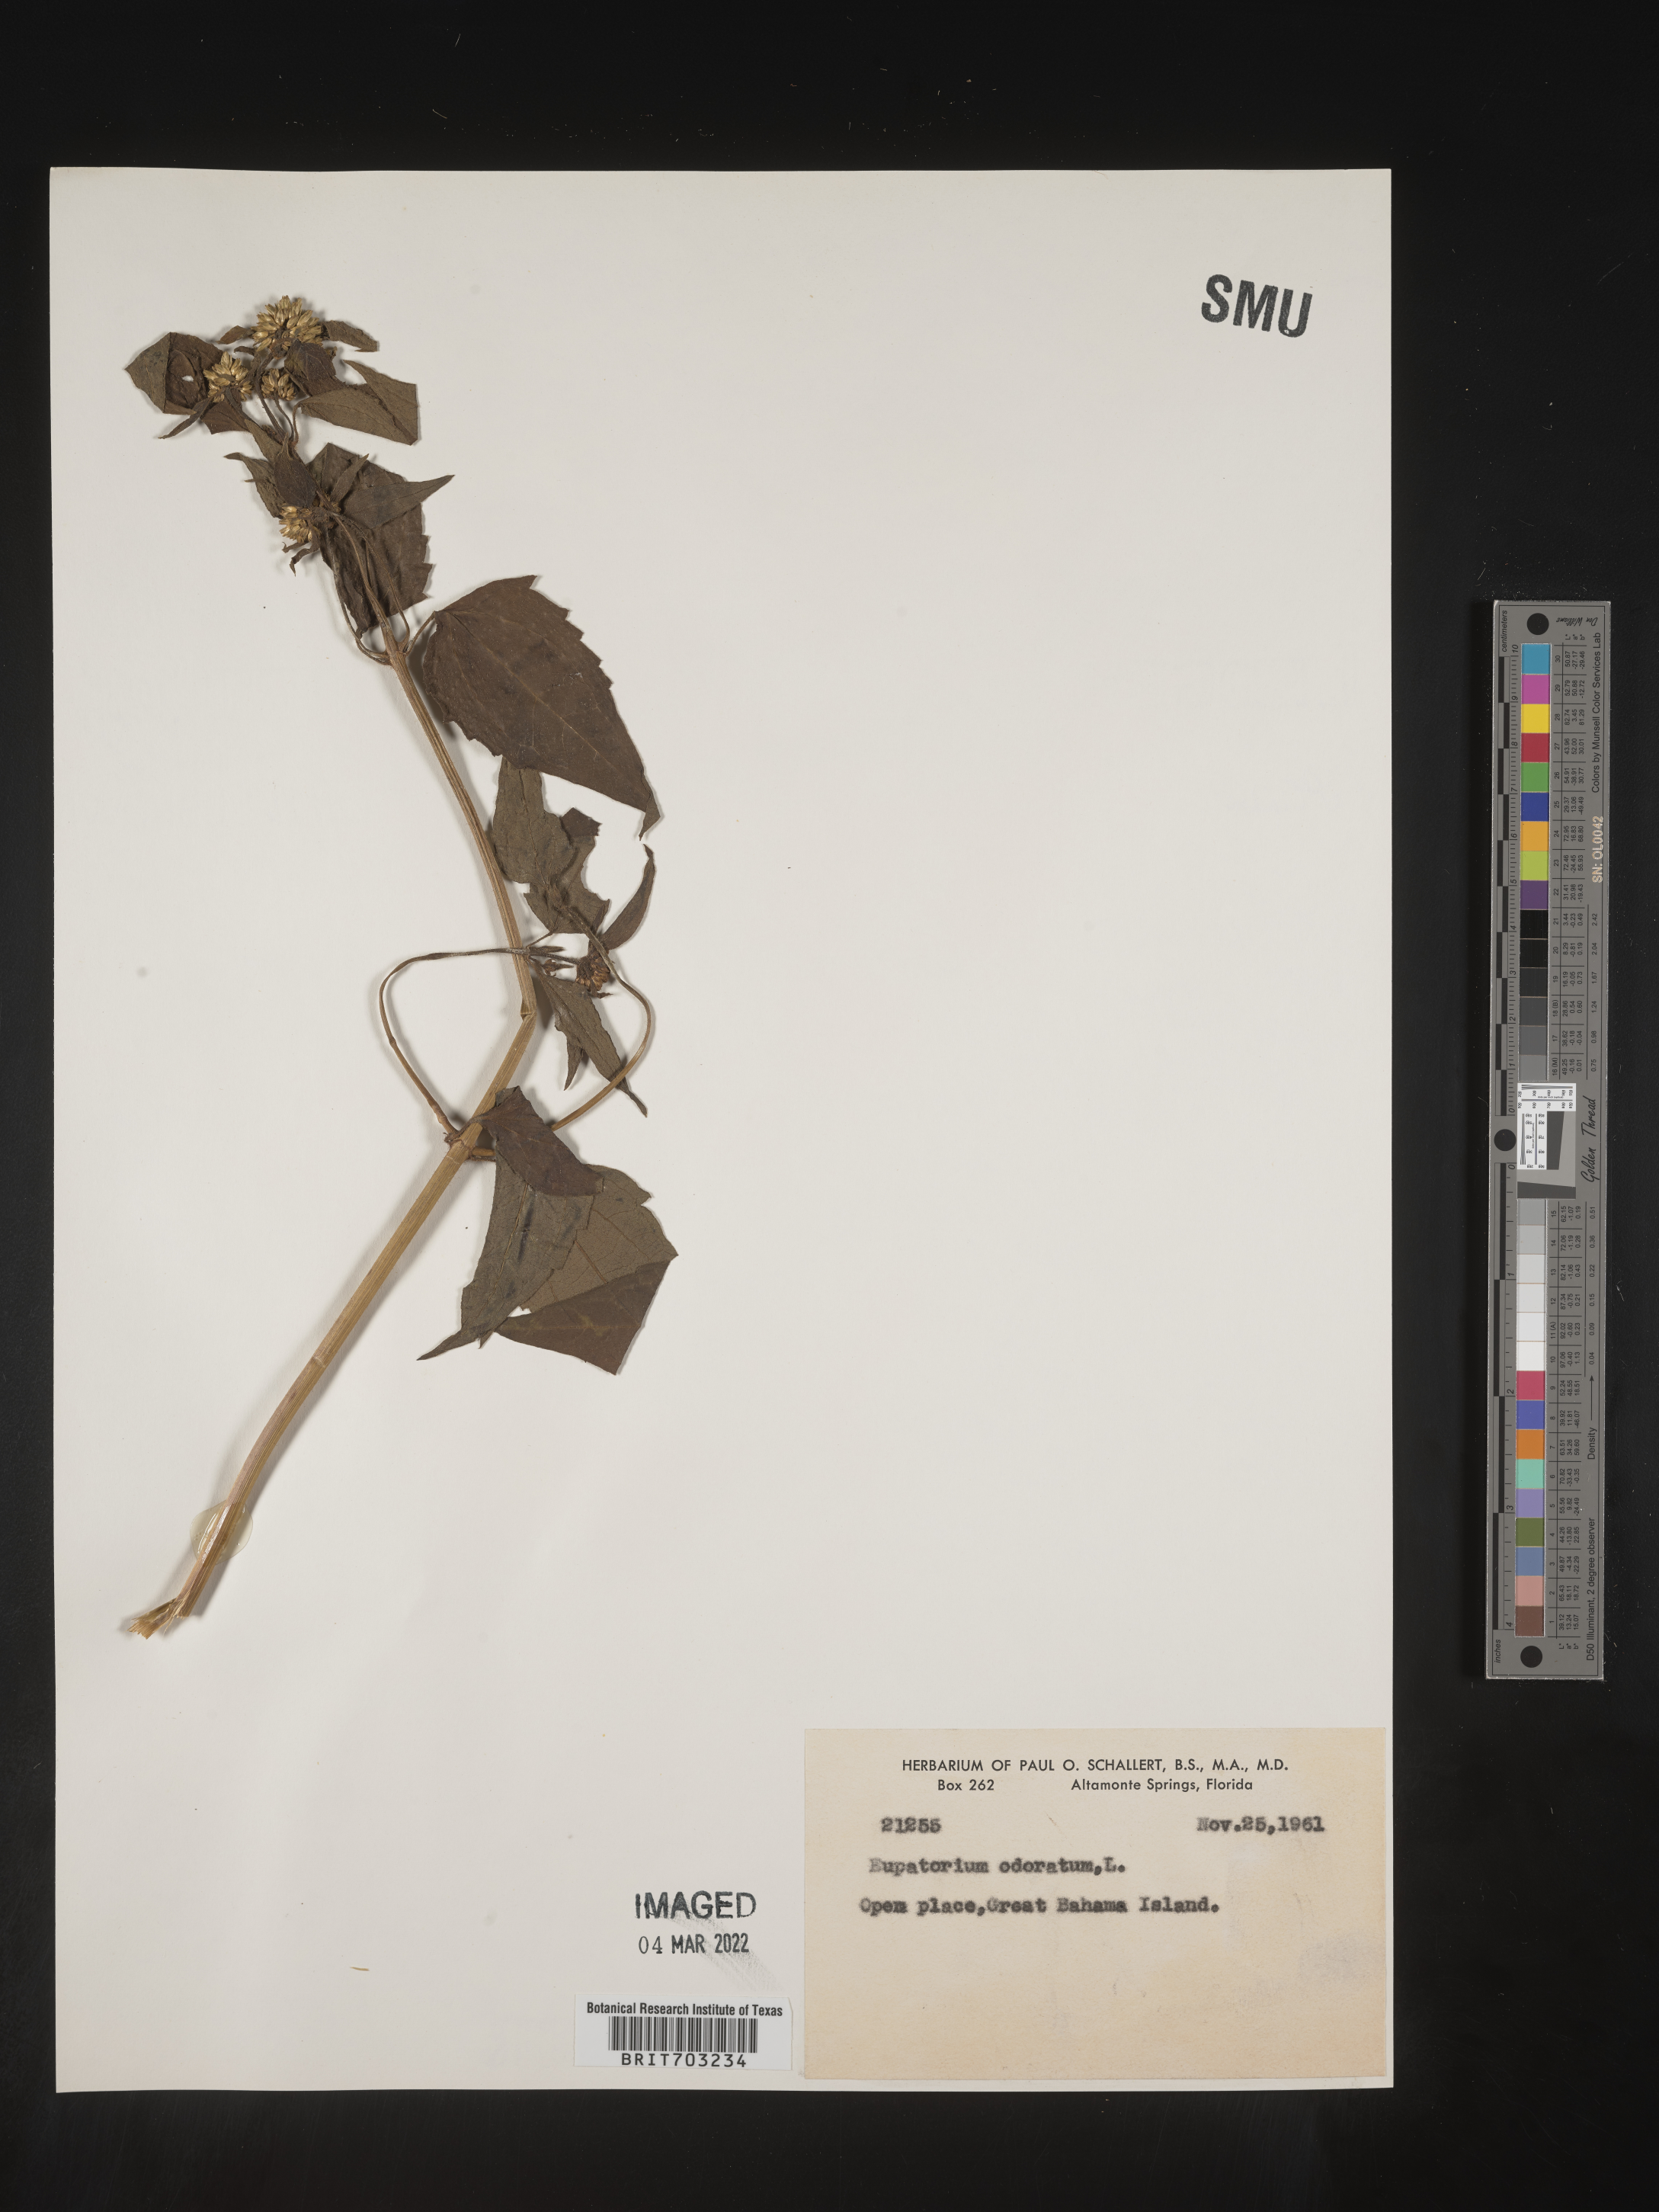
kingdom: Plantae
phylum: Tracheophyta
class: Magnoliopsida
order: Asterales
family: Asteraceae
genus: Eupatorium
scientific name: Eupatorium
